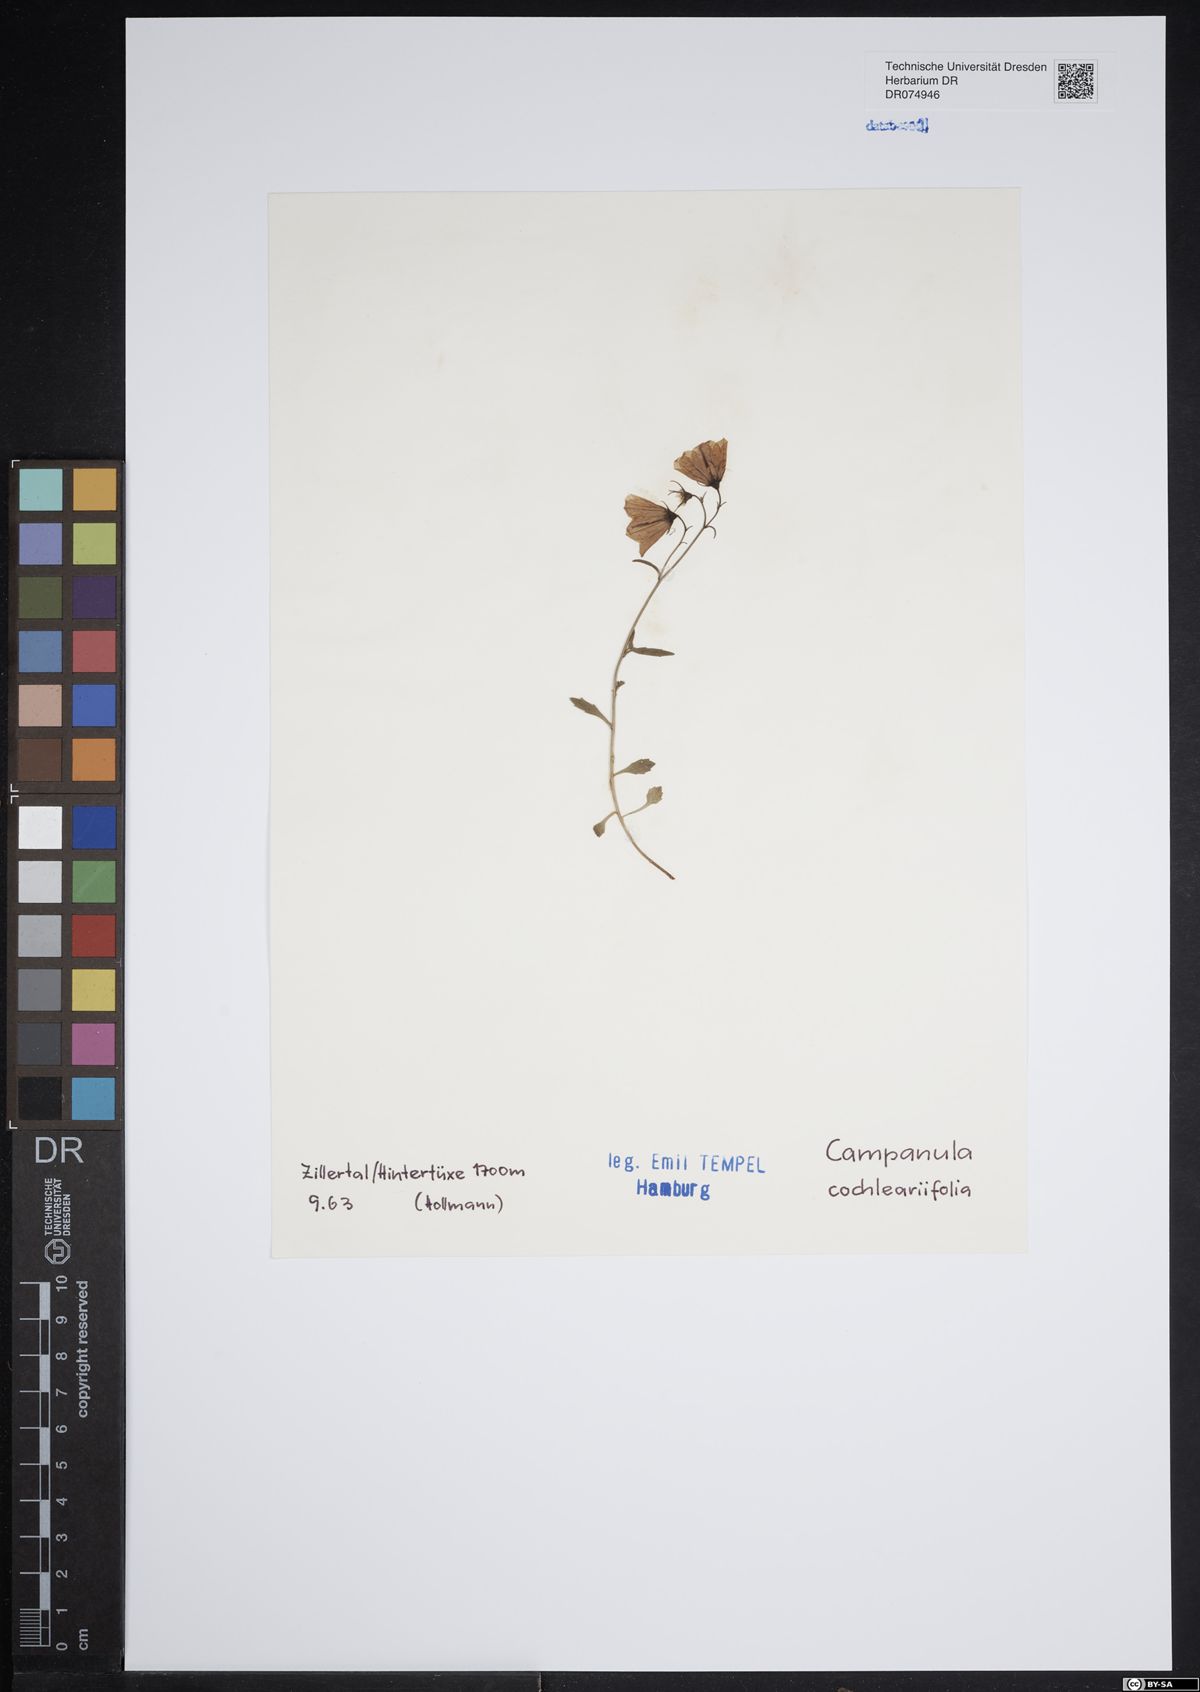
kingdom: Plantae
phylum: Tracheophyta
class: Magnoliopsida
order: Asterales
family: Campanulaceae
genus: Campanula
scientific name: Campanula cochleariifolia
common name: Fairies'-thimbles
